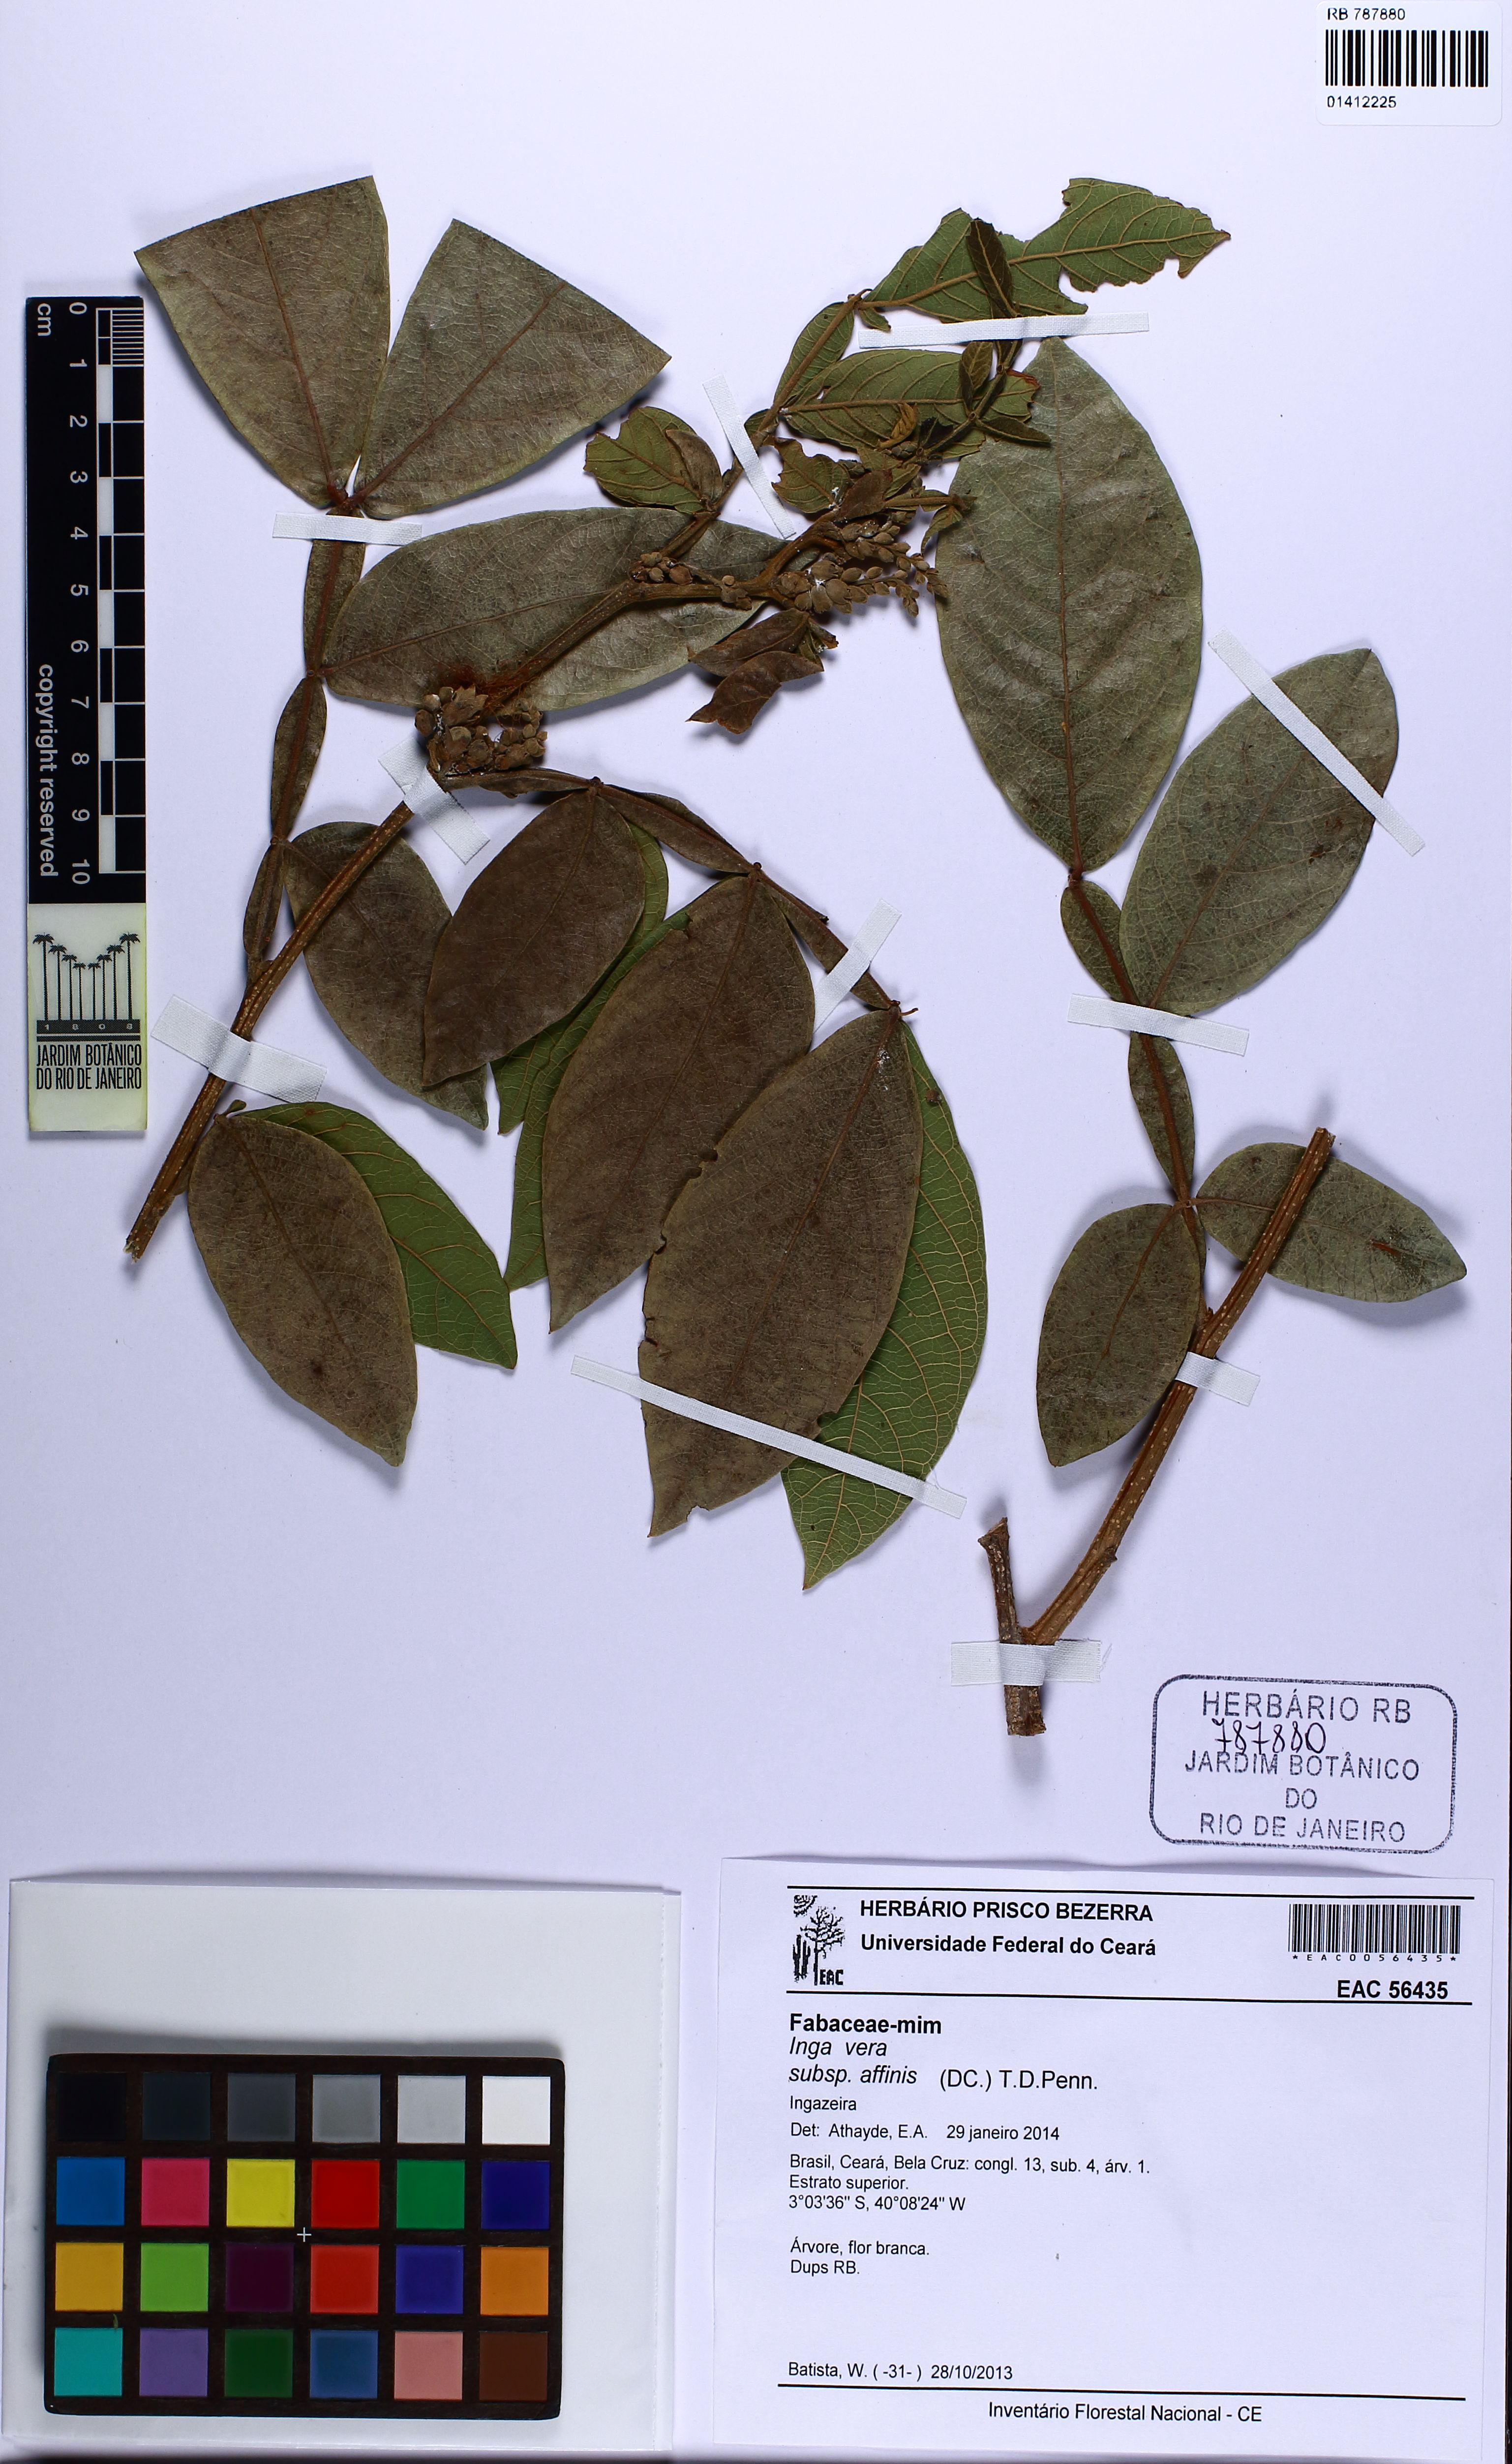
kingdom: Plantae
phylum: Tracheophyta
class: Magnoliopsida
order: Fabales
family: Fabaceae
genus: Inga
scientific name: Inga affinis
